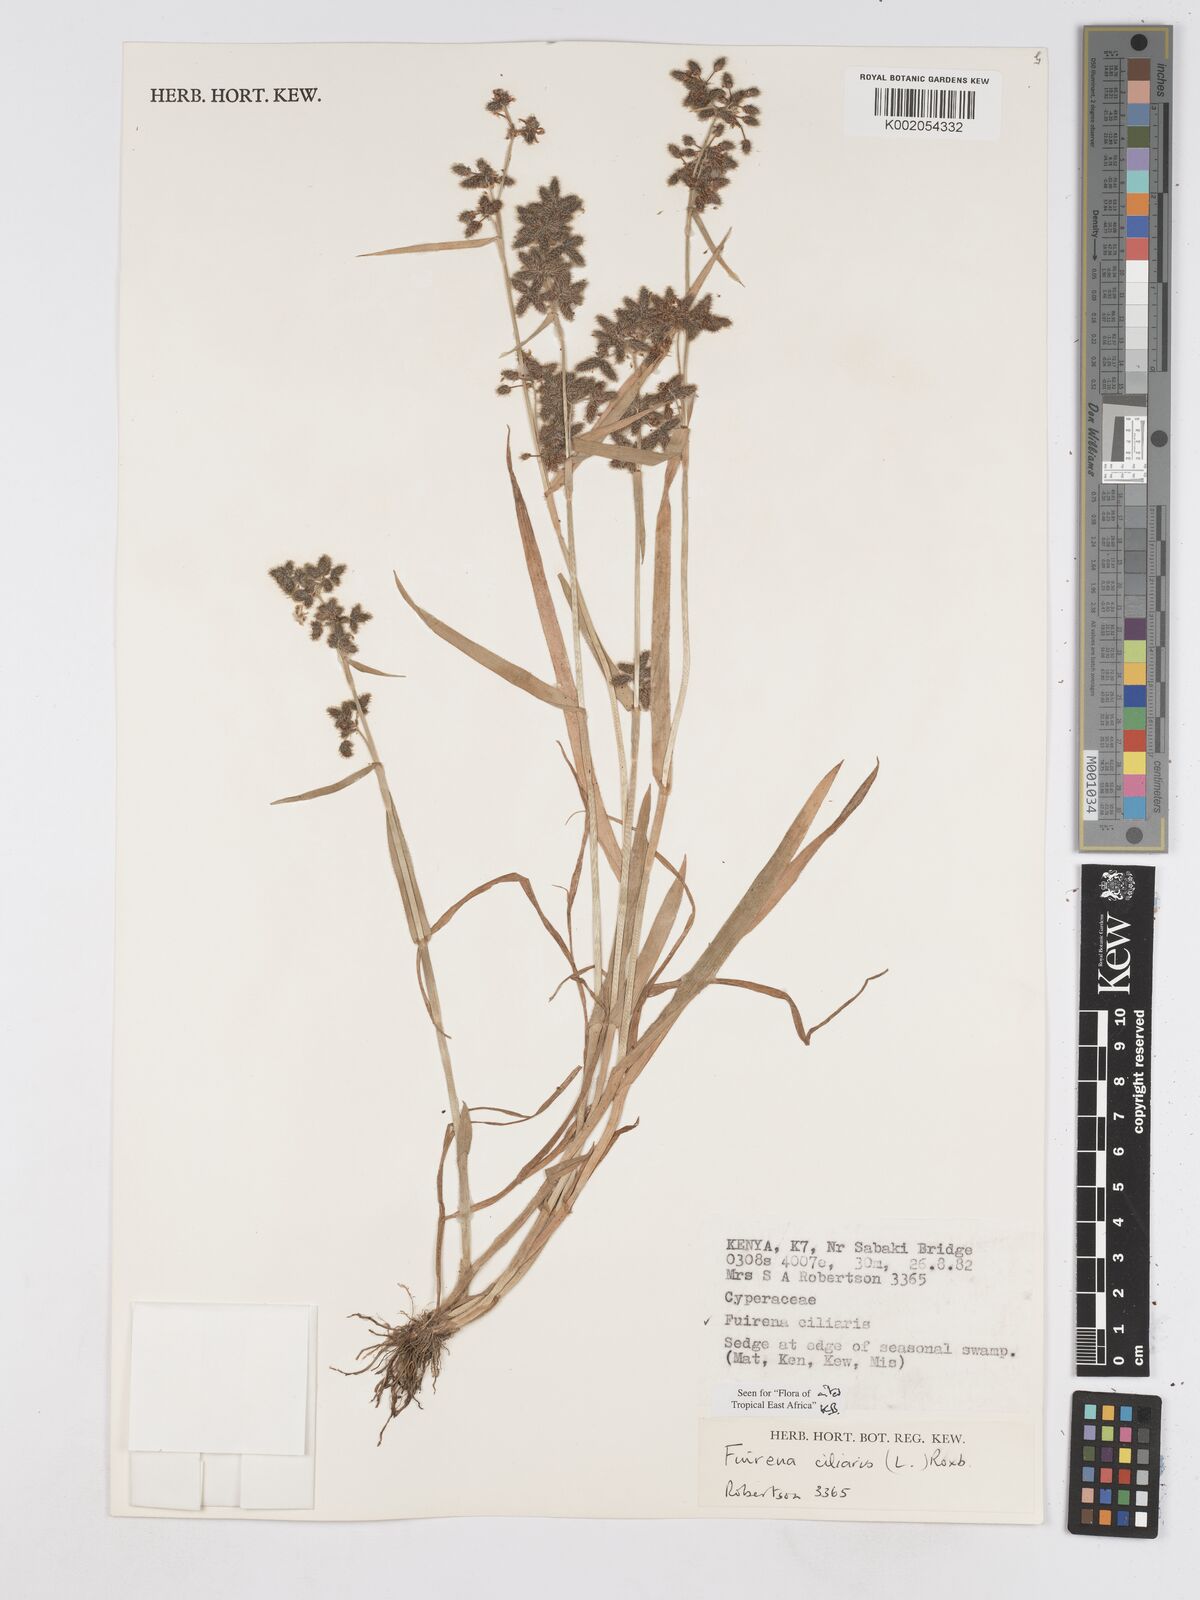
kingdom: Plantae
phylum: Tracheophyta
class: Liliopsida
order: Poales
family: Cyperaceae
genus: Fuirena
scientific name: Fuirena ciliaris
